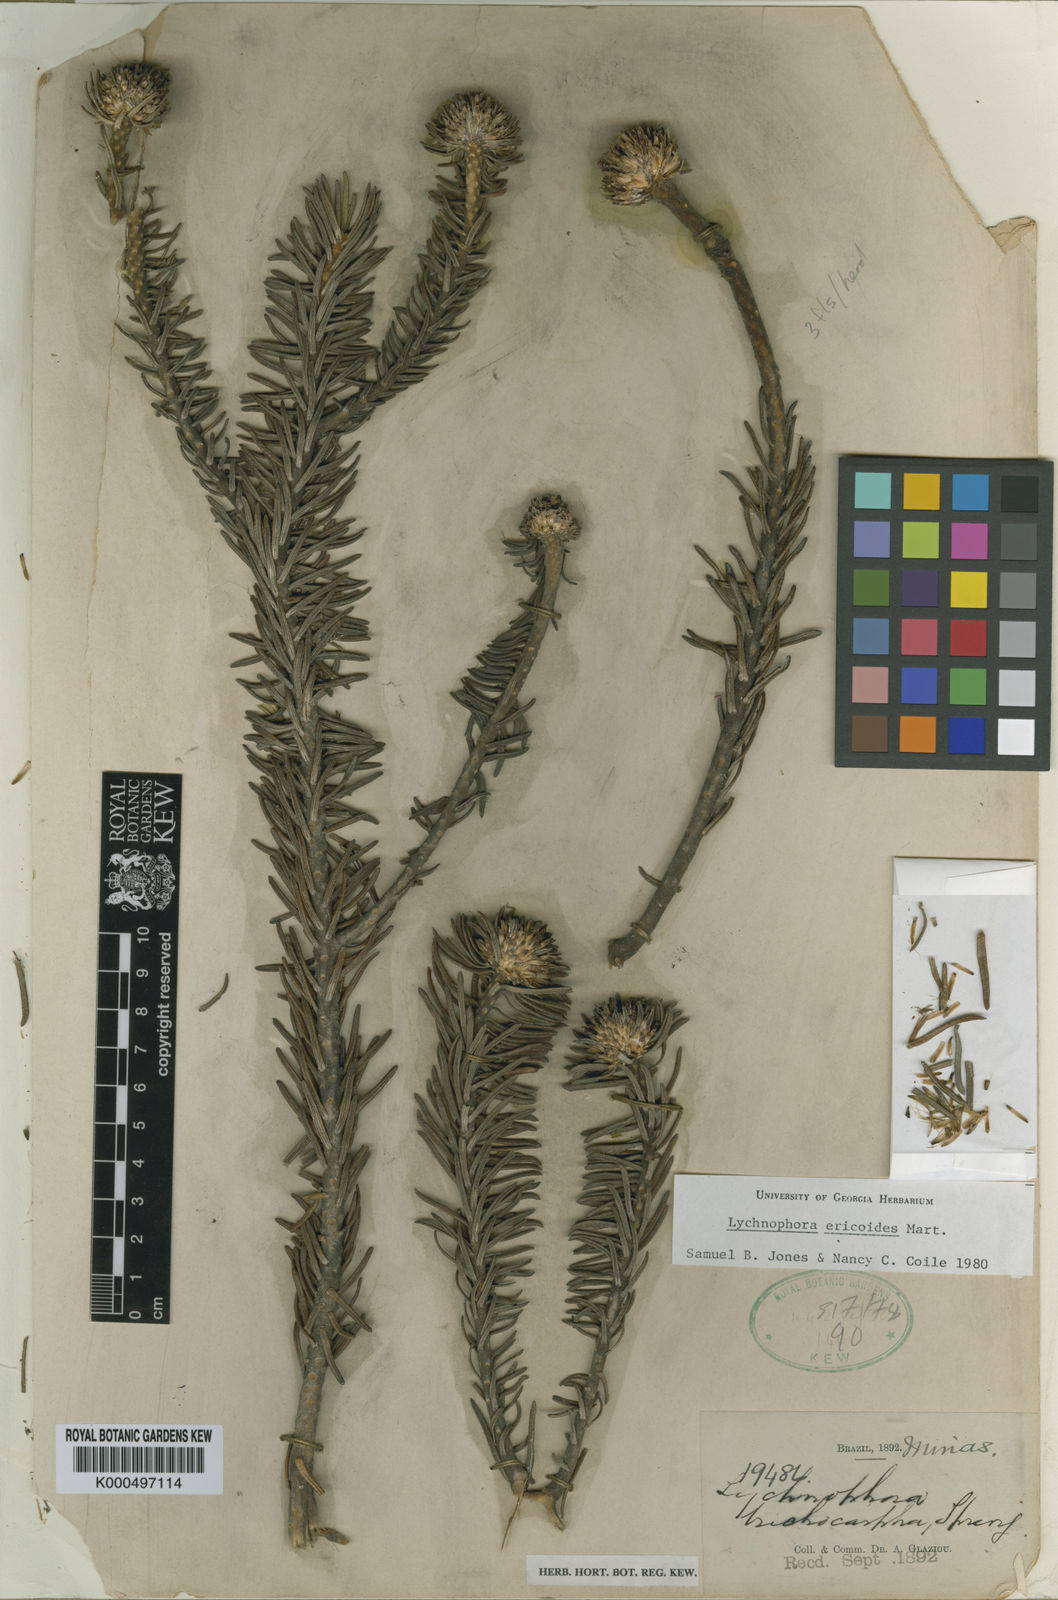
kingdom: Plantae
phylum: Tracheophyta
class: Magnoliopsida
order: Asterales
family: Asteraceae
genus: Lychnophora
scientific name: Lychnophora ericoides
